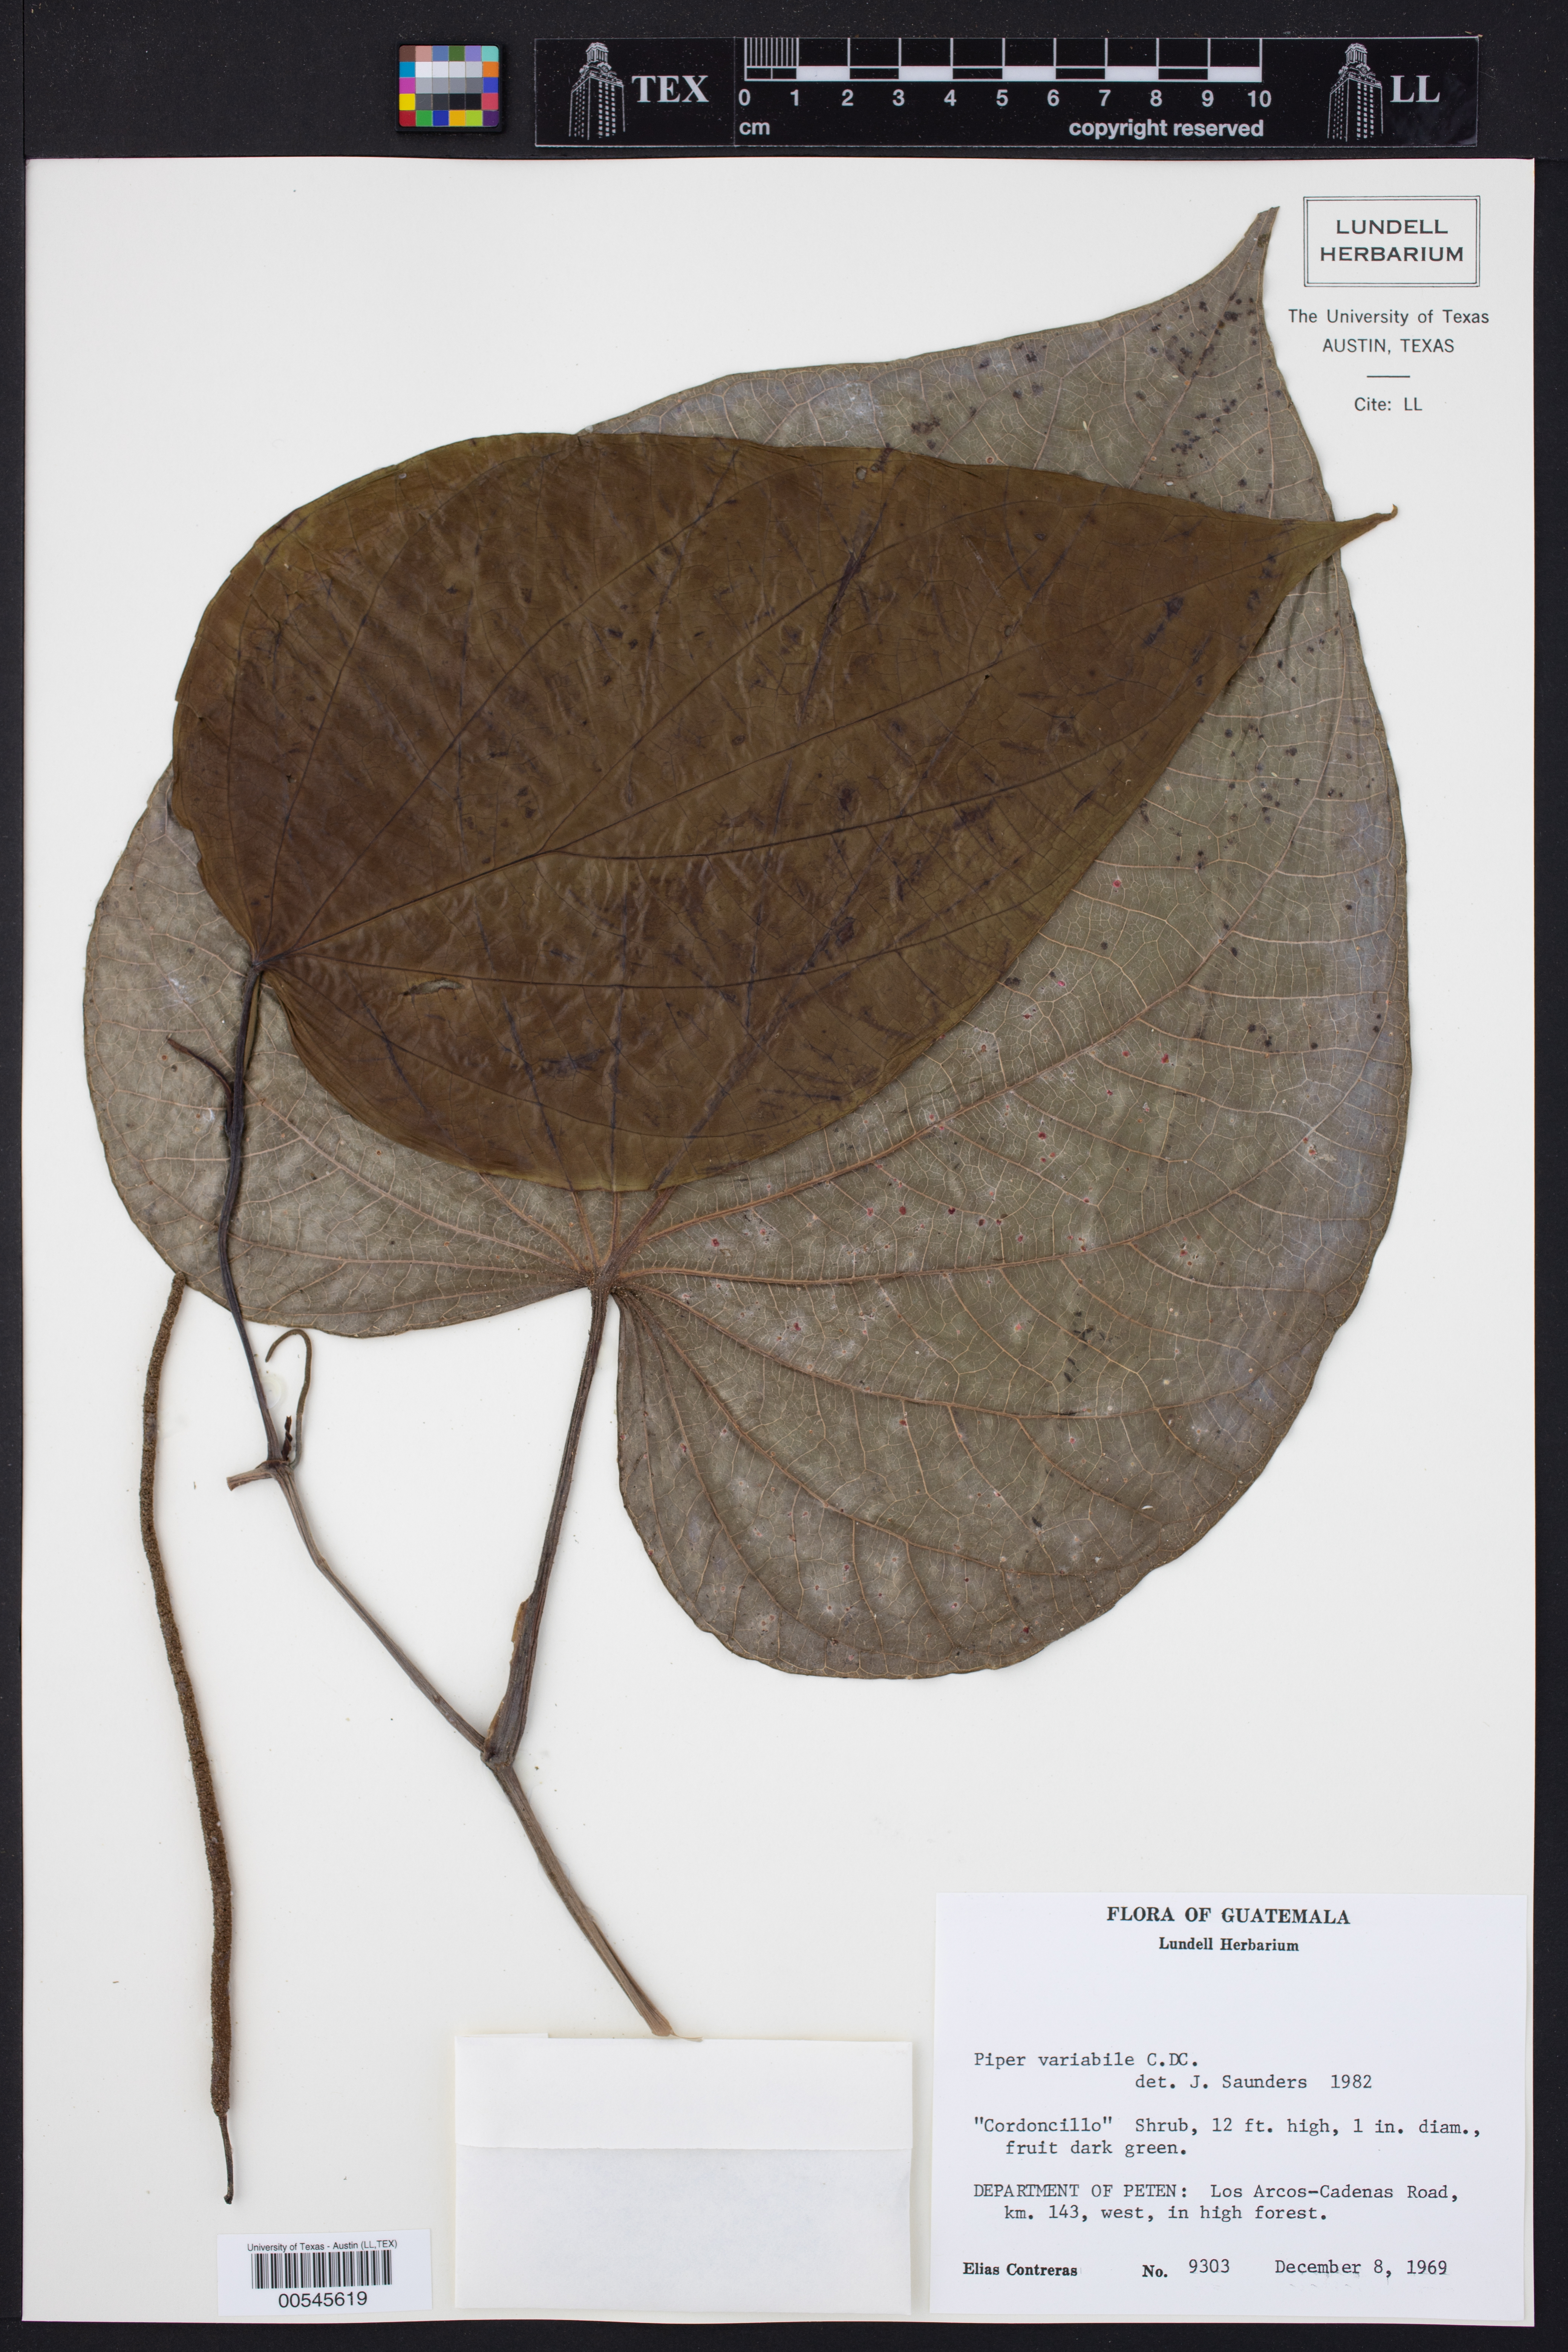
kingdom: Plantae
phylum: Tracheophyta
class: Magnoliopsida
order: Piperales
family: Piperaceae
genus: Piper
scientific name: Piper variabile
